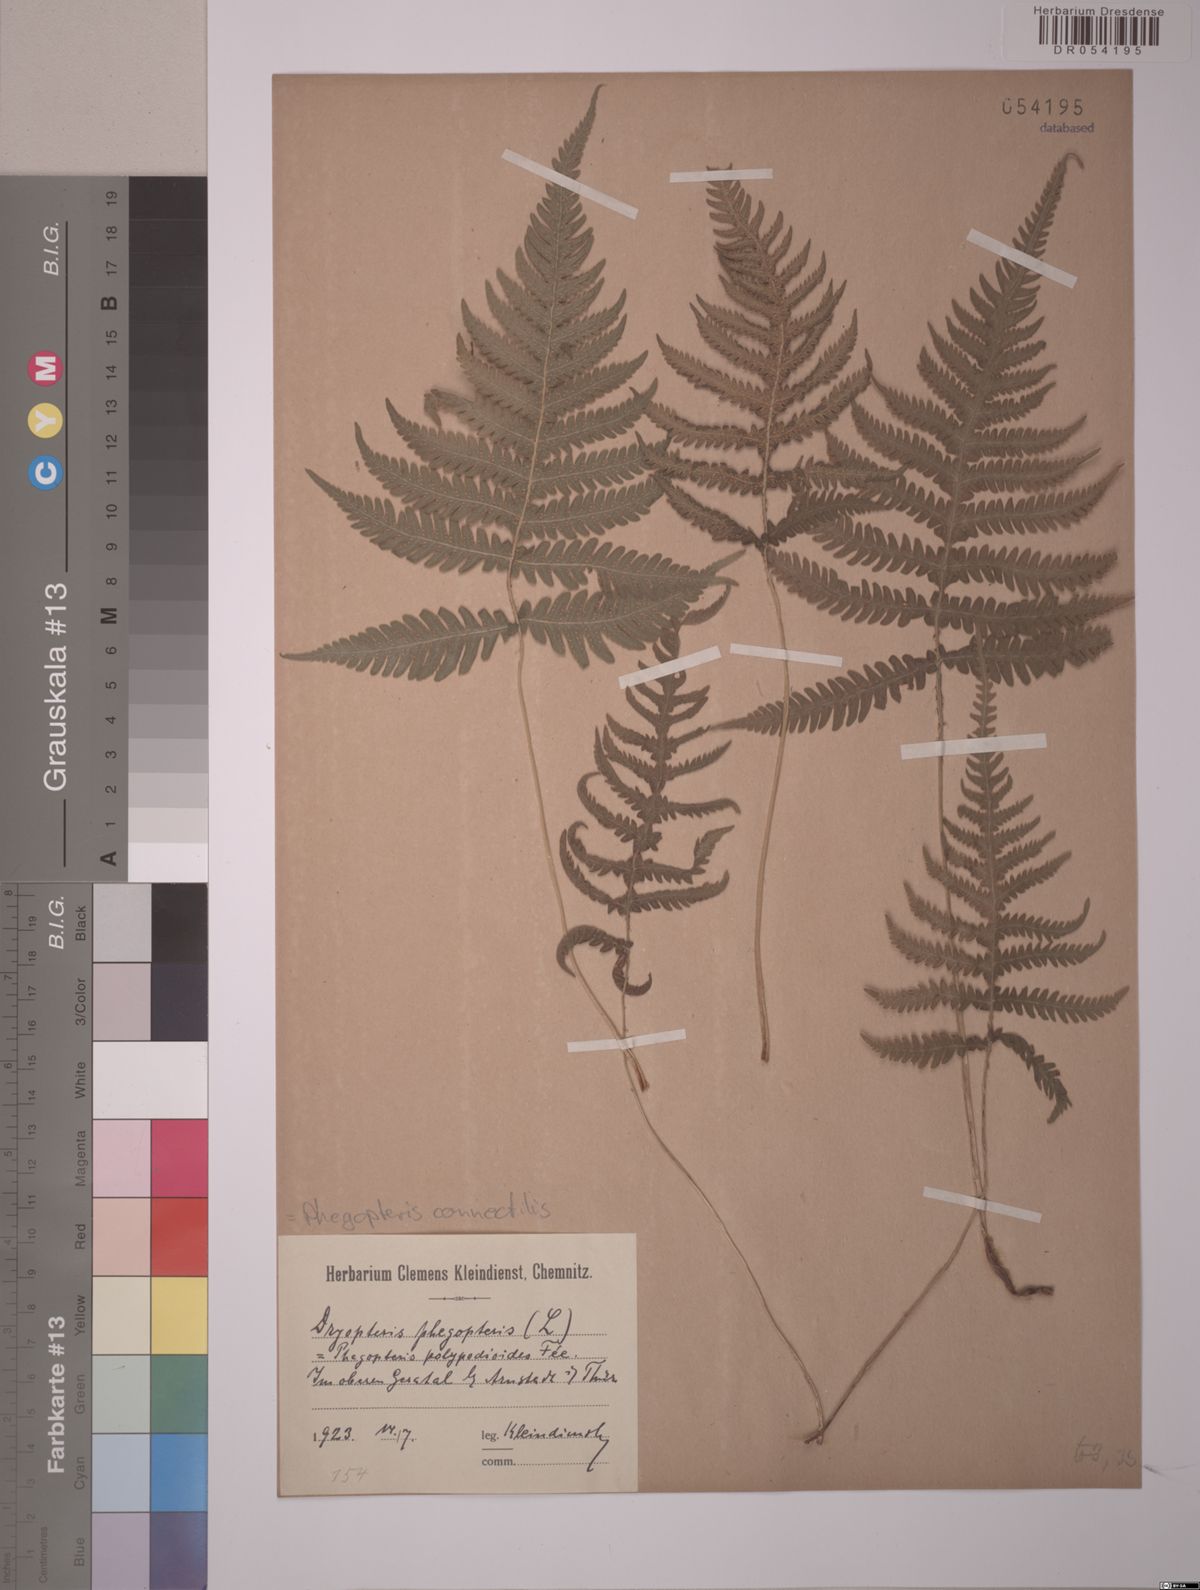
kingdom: Plantae
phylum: Tracheophyta
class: Polypodiopsida
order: Polypodiales
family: Thelypteridaceae
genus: Phegopteris
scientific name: Phegopteris connectilis
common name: Beech fern
